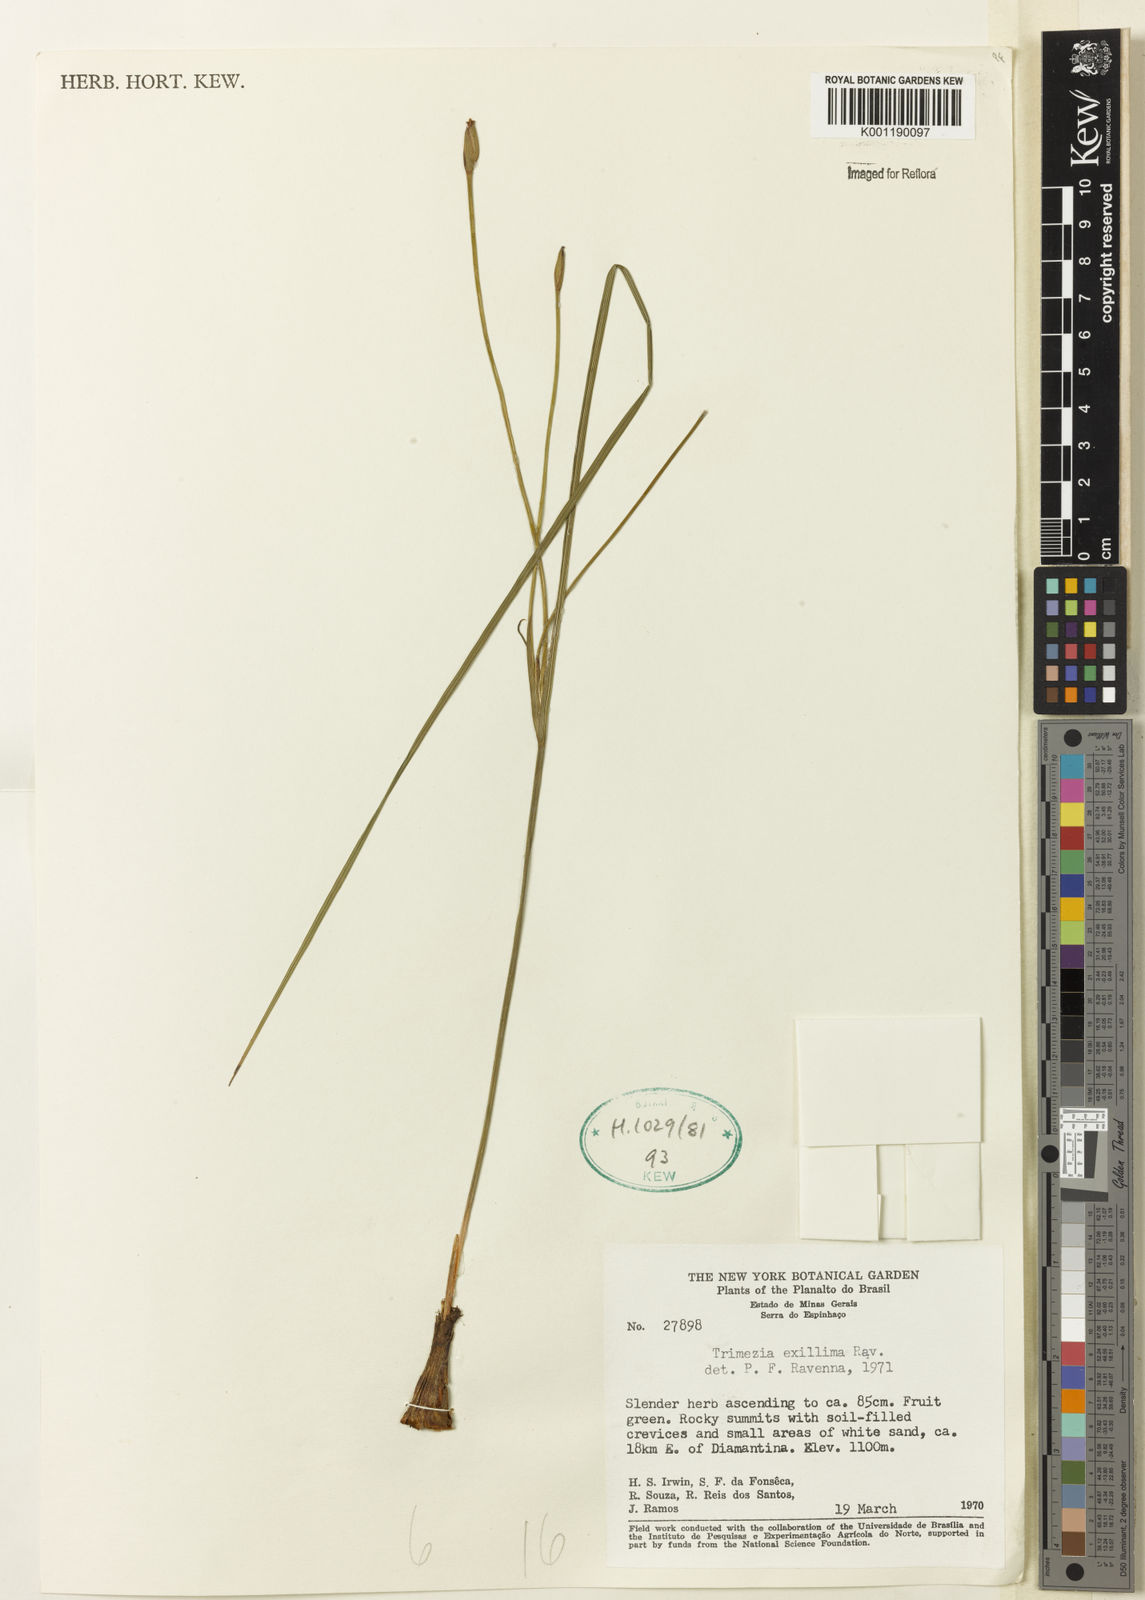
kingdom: Plantae
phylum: Tracheophyta
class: Liliopsida
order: Asparagales
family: Iridaceae
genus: Trimezia
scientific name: Trimezia exillima
